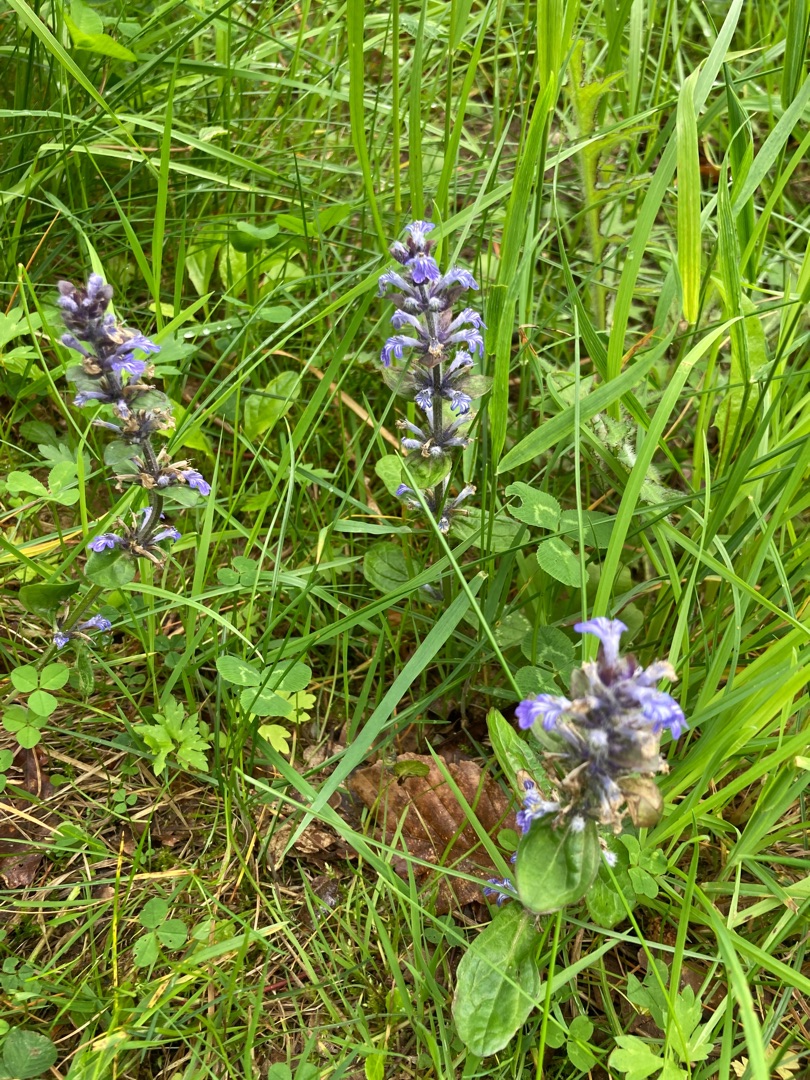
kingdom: Plantae
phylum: Tracheophyta
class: Magnoliopsida
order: Lamiales
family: Lamiaceae
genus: Ajuga
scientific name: Ajuga reptans
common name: Krybende læbeløs
